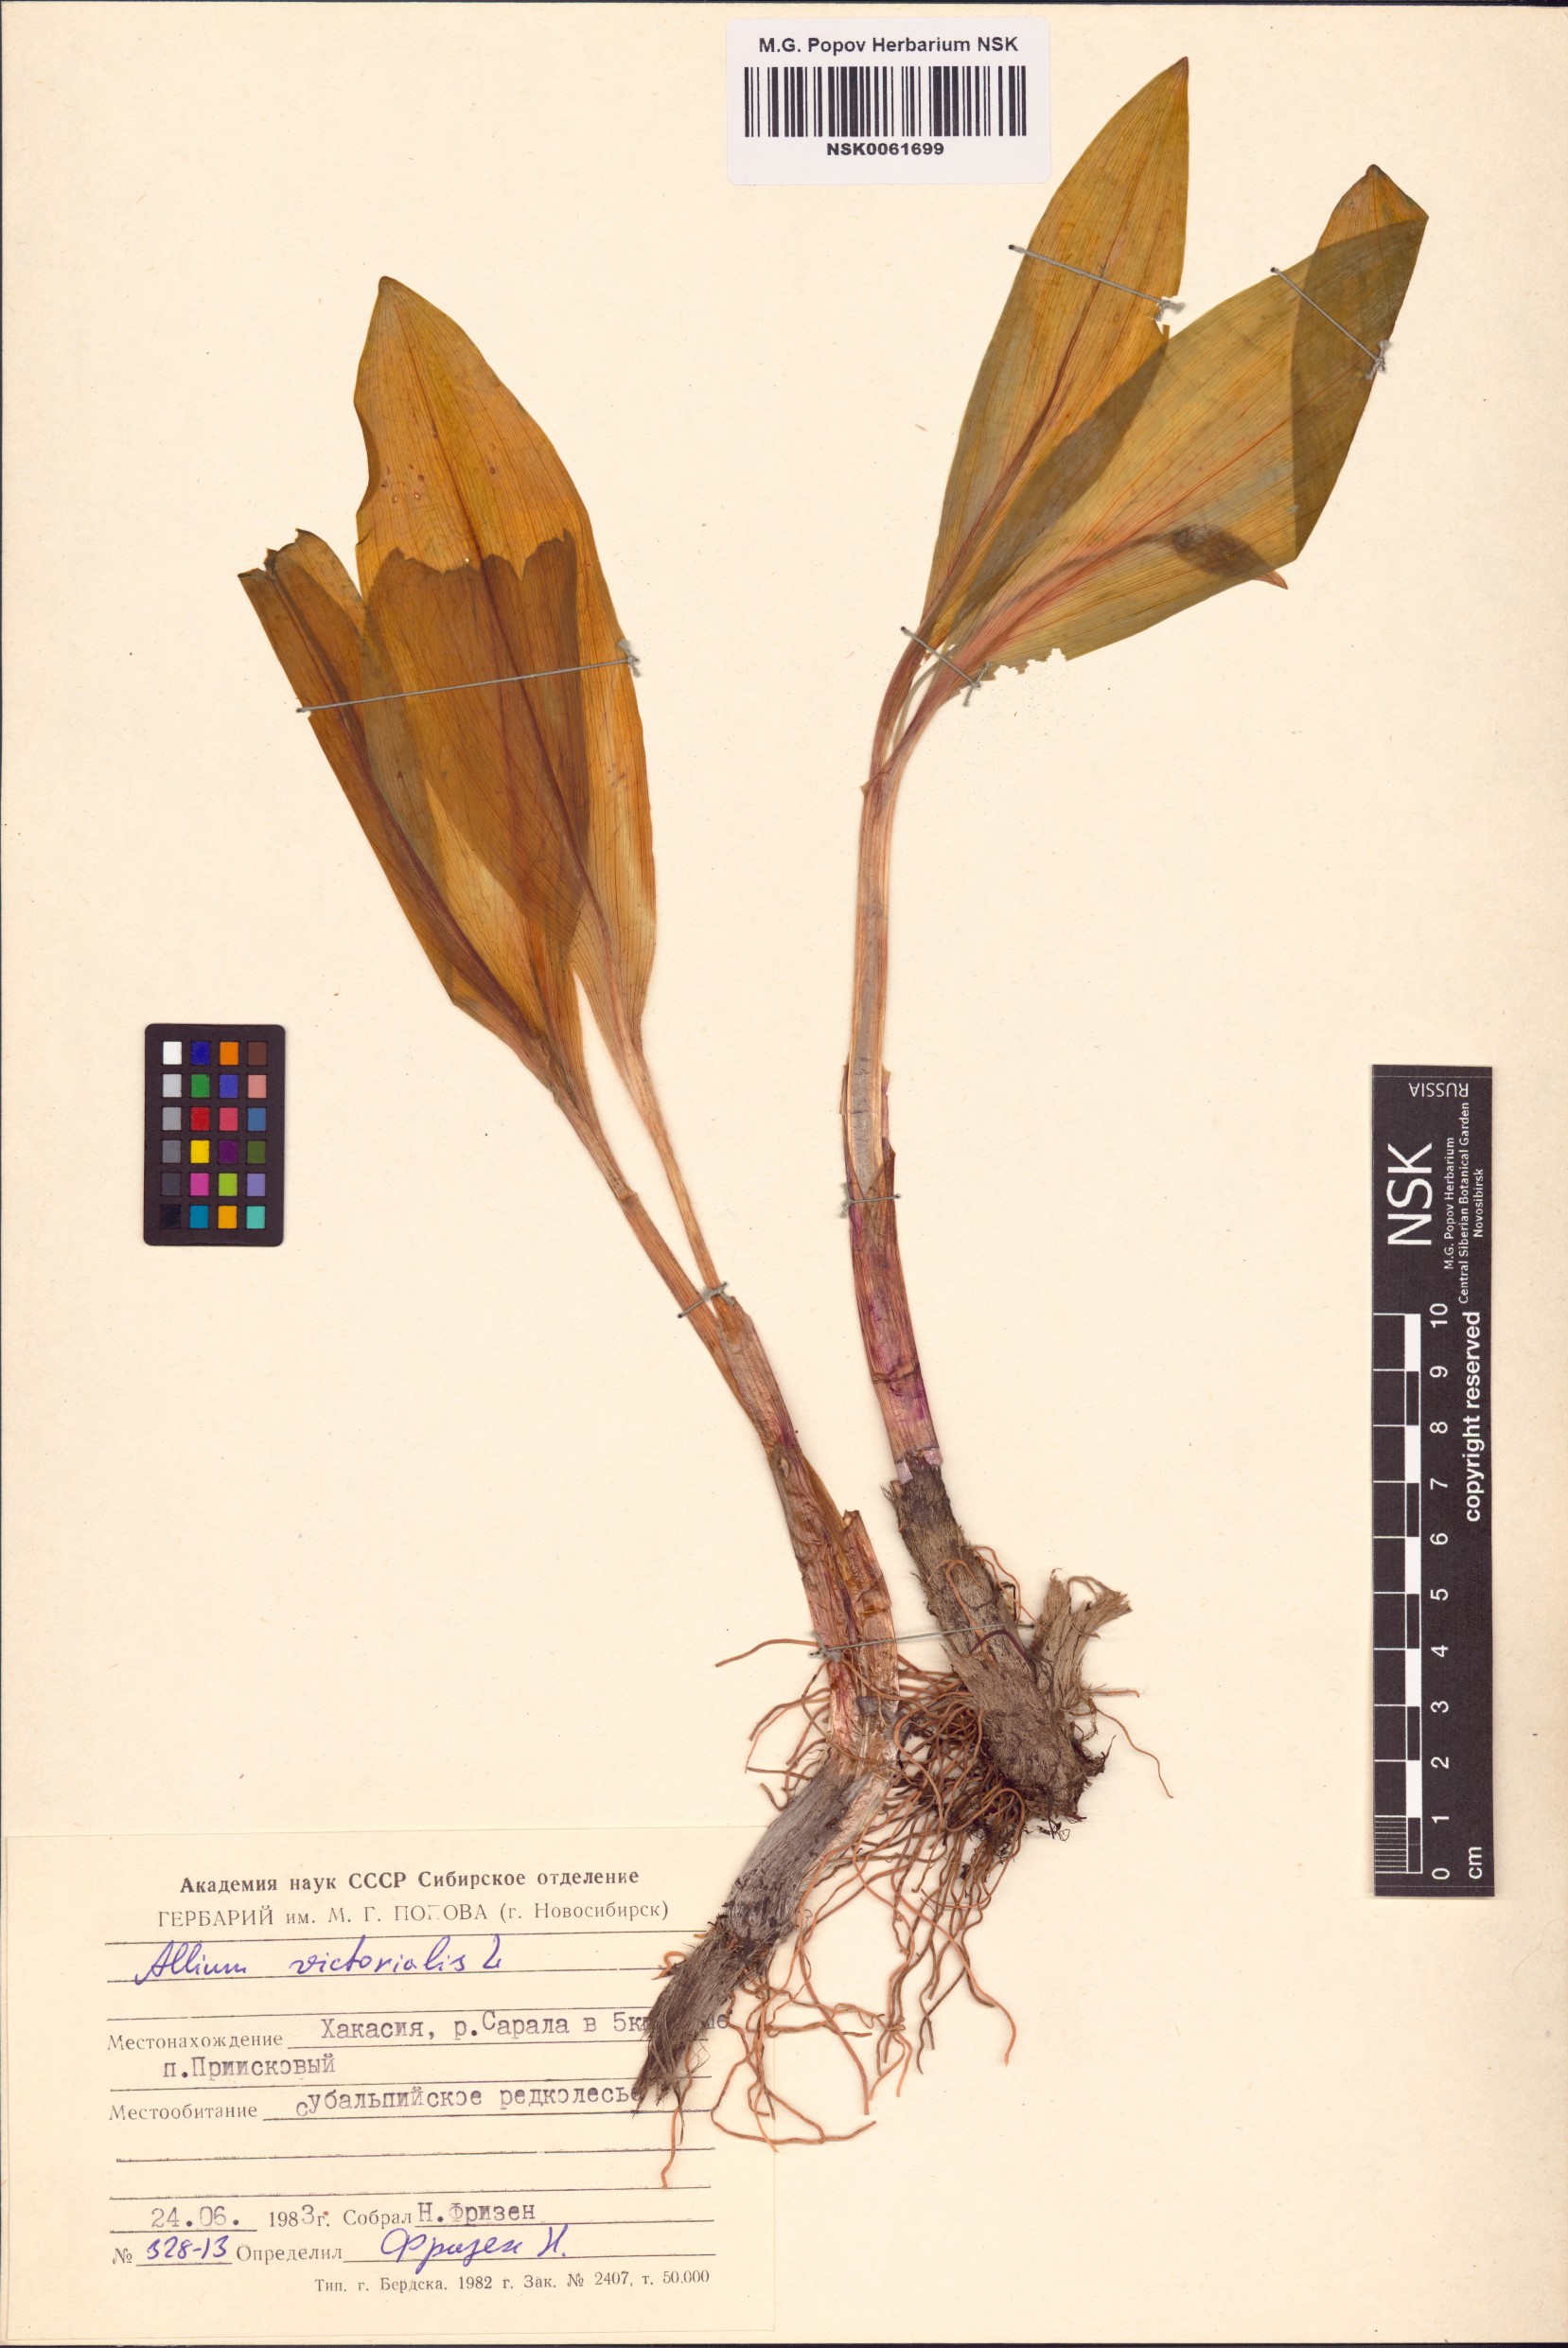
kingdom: Plantae
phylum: Tracheophyta
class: Liliopsida
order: Asparagales
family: Amaryllidaceae
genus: Allium
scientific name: Allium victorialis
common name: Alpine leek
